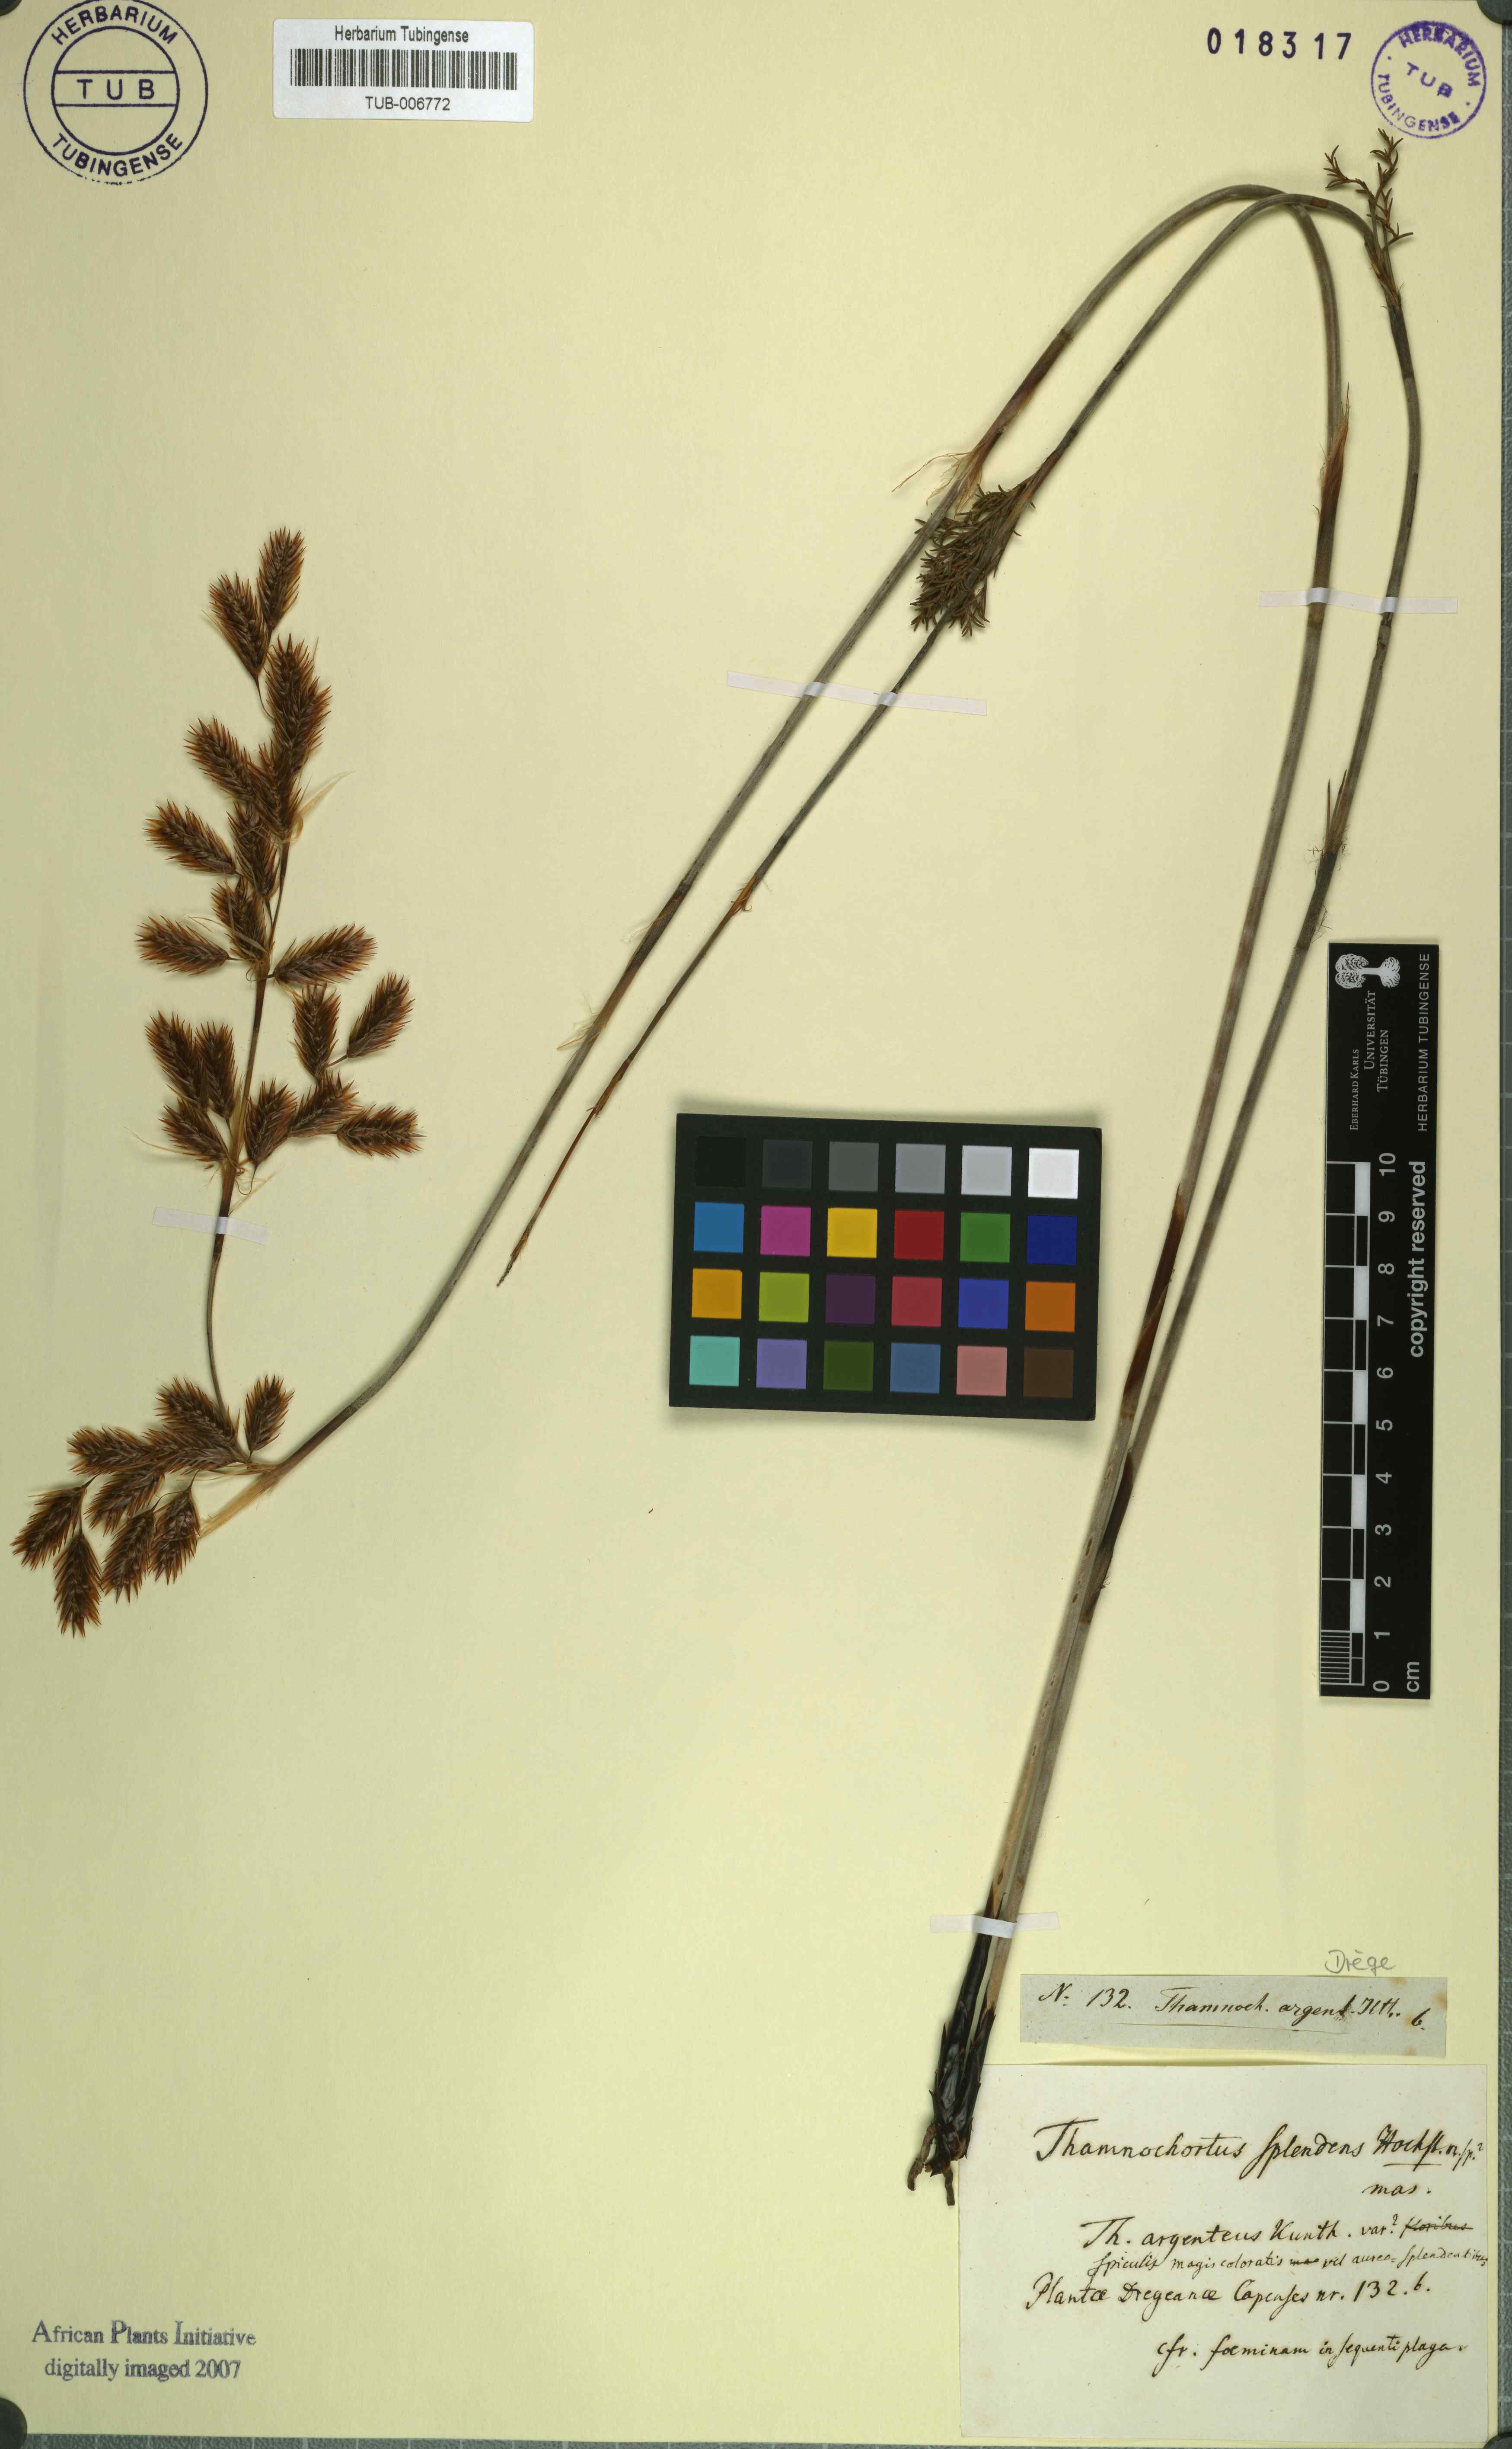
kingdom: Plantae
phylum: Tracheophyta
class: Liliopsida
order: Poales
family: Restionaceae
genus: Hypodiscus
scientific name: Hypodiscus argenteus
